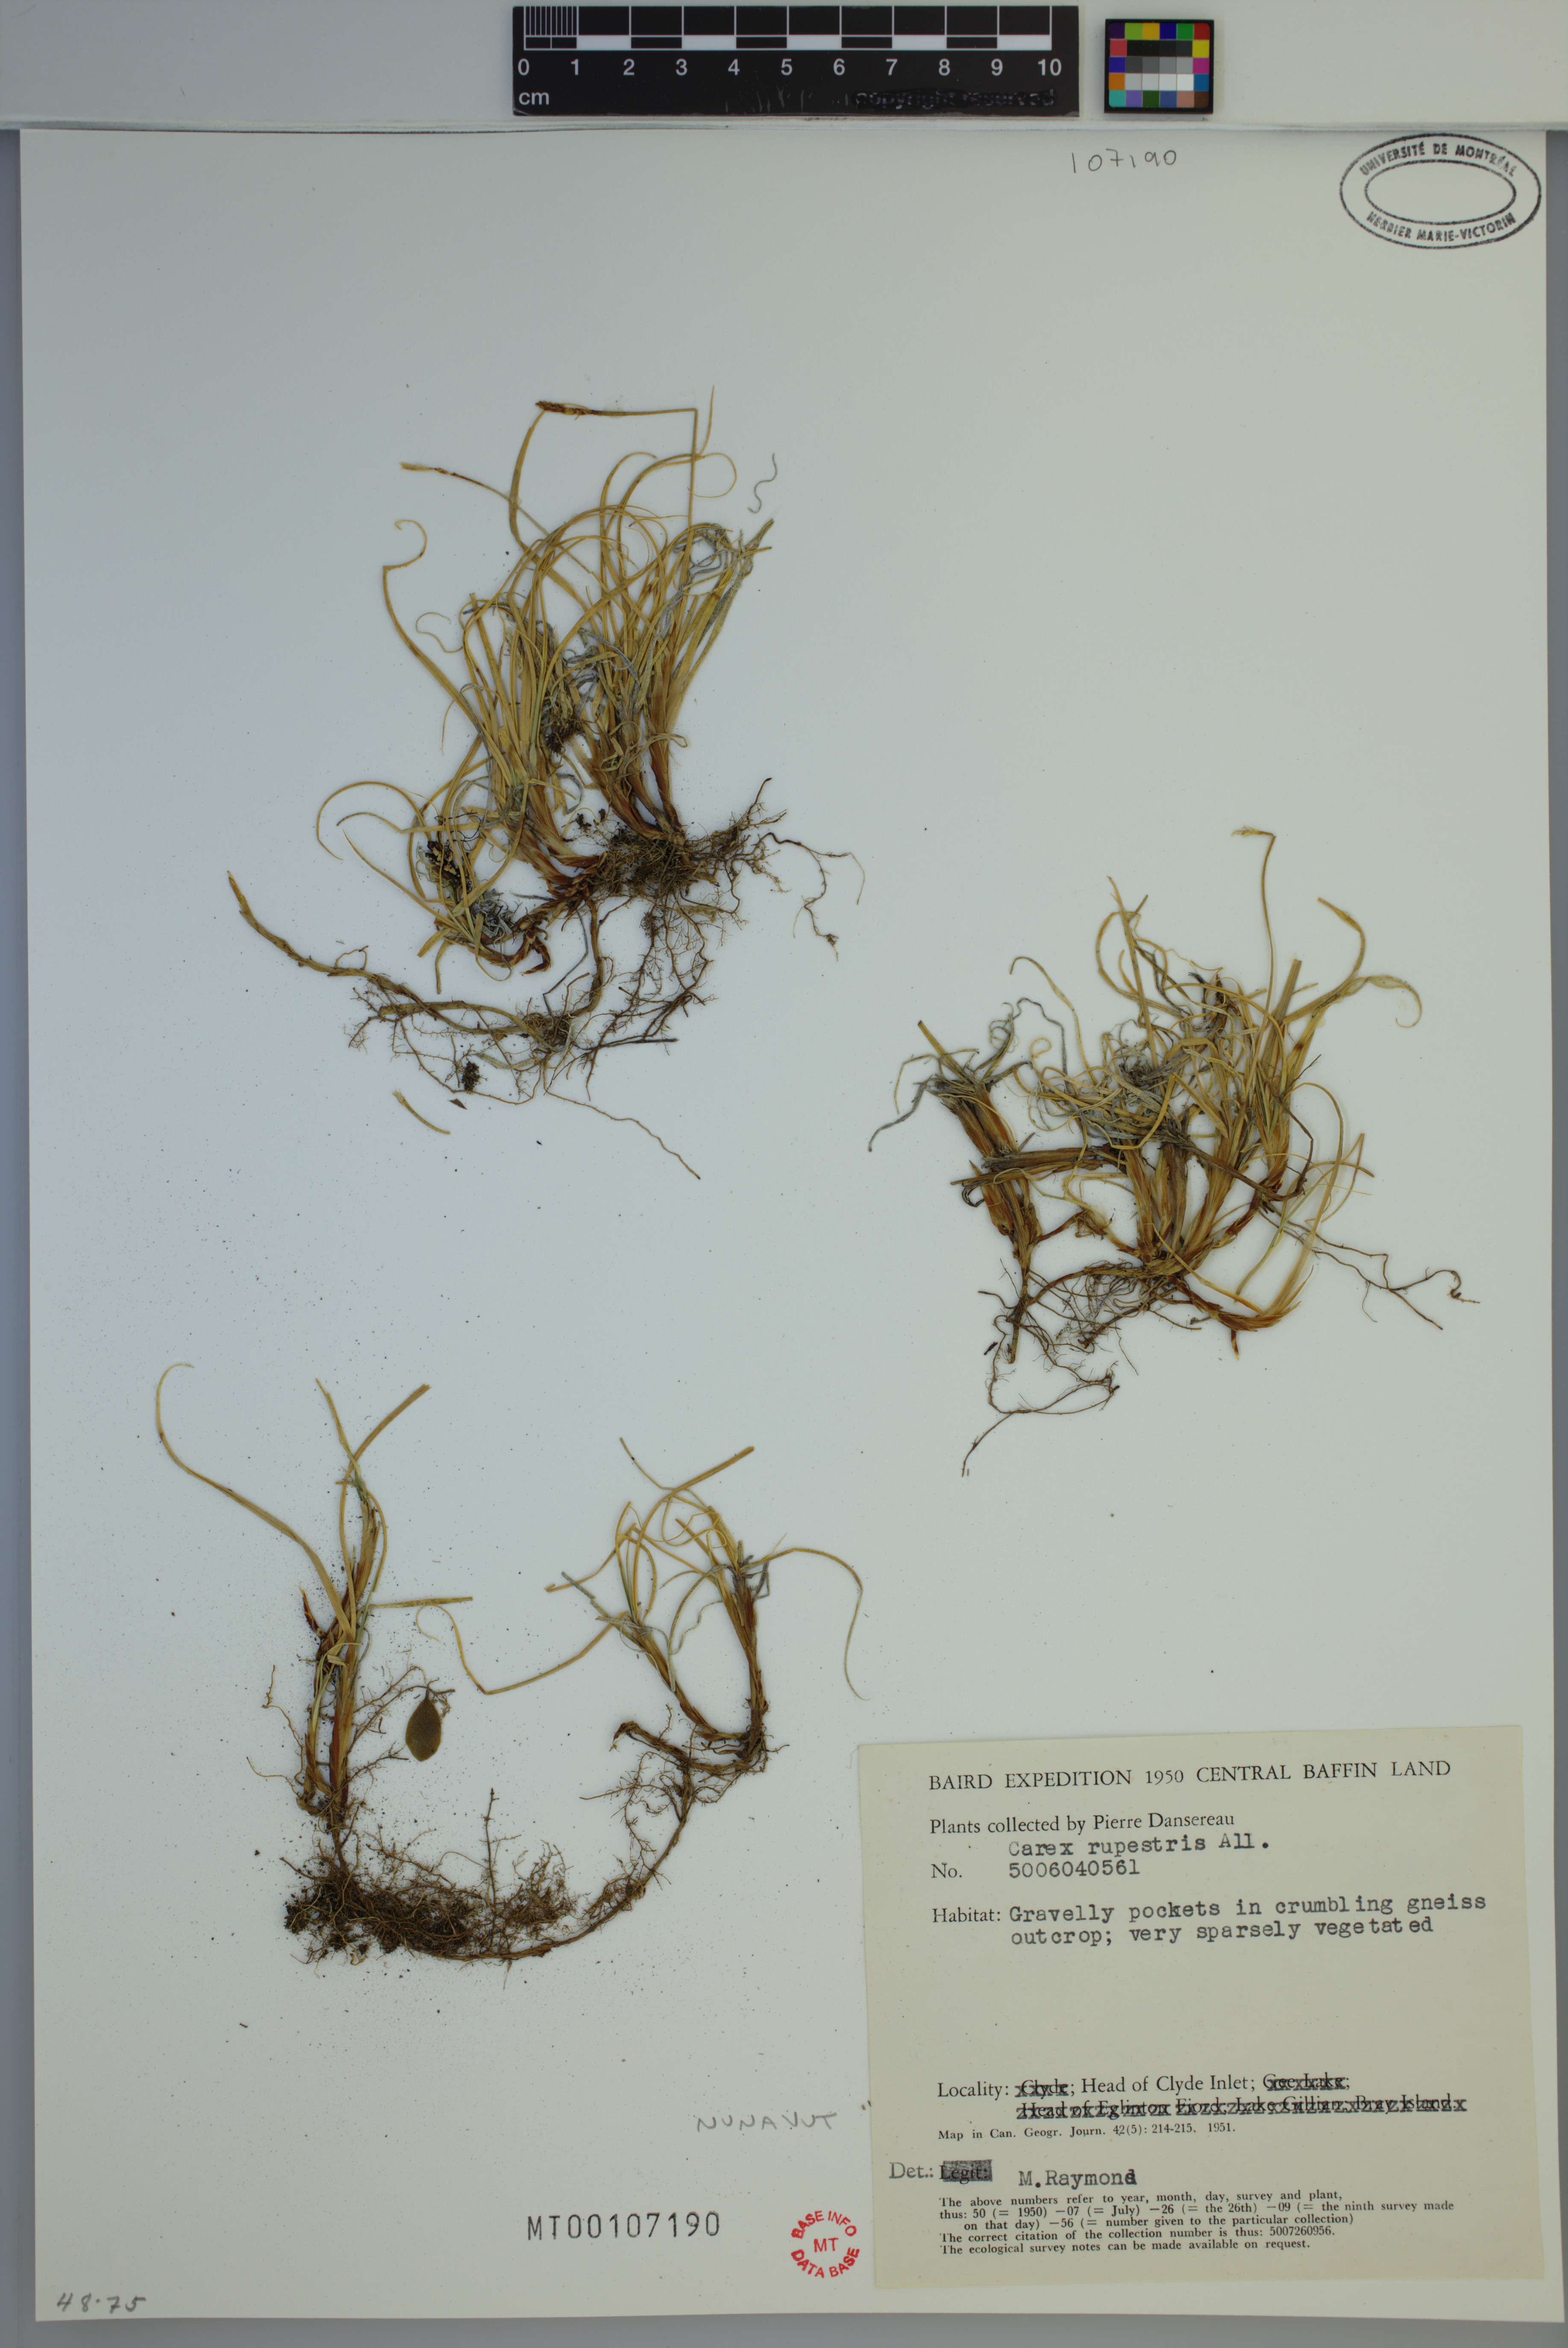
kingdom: Plantae
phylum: Tracheophyta
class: Liliopsida
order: Poales
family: Cyperaceae
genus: Carex
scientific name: Carex rupestris
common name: Rock sedge
